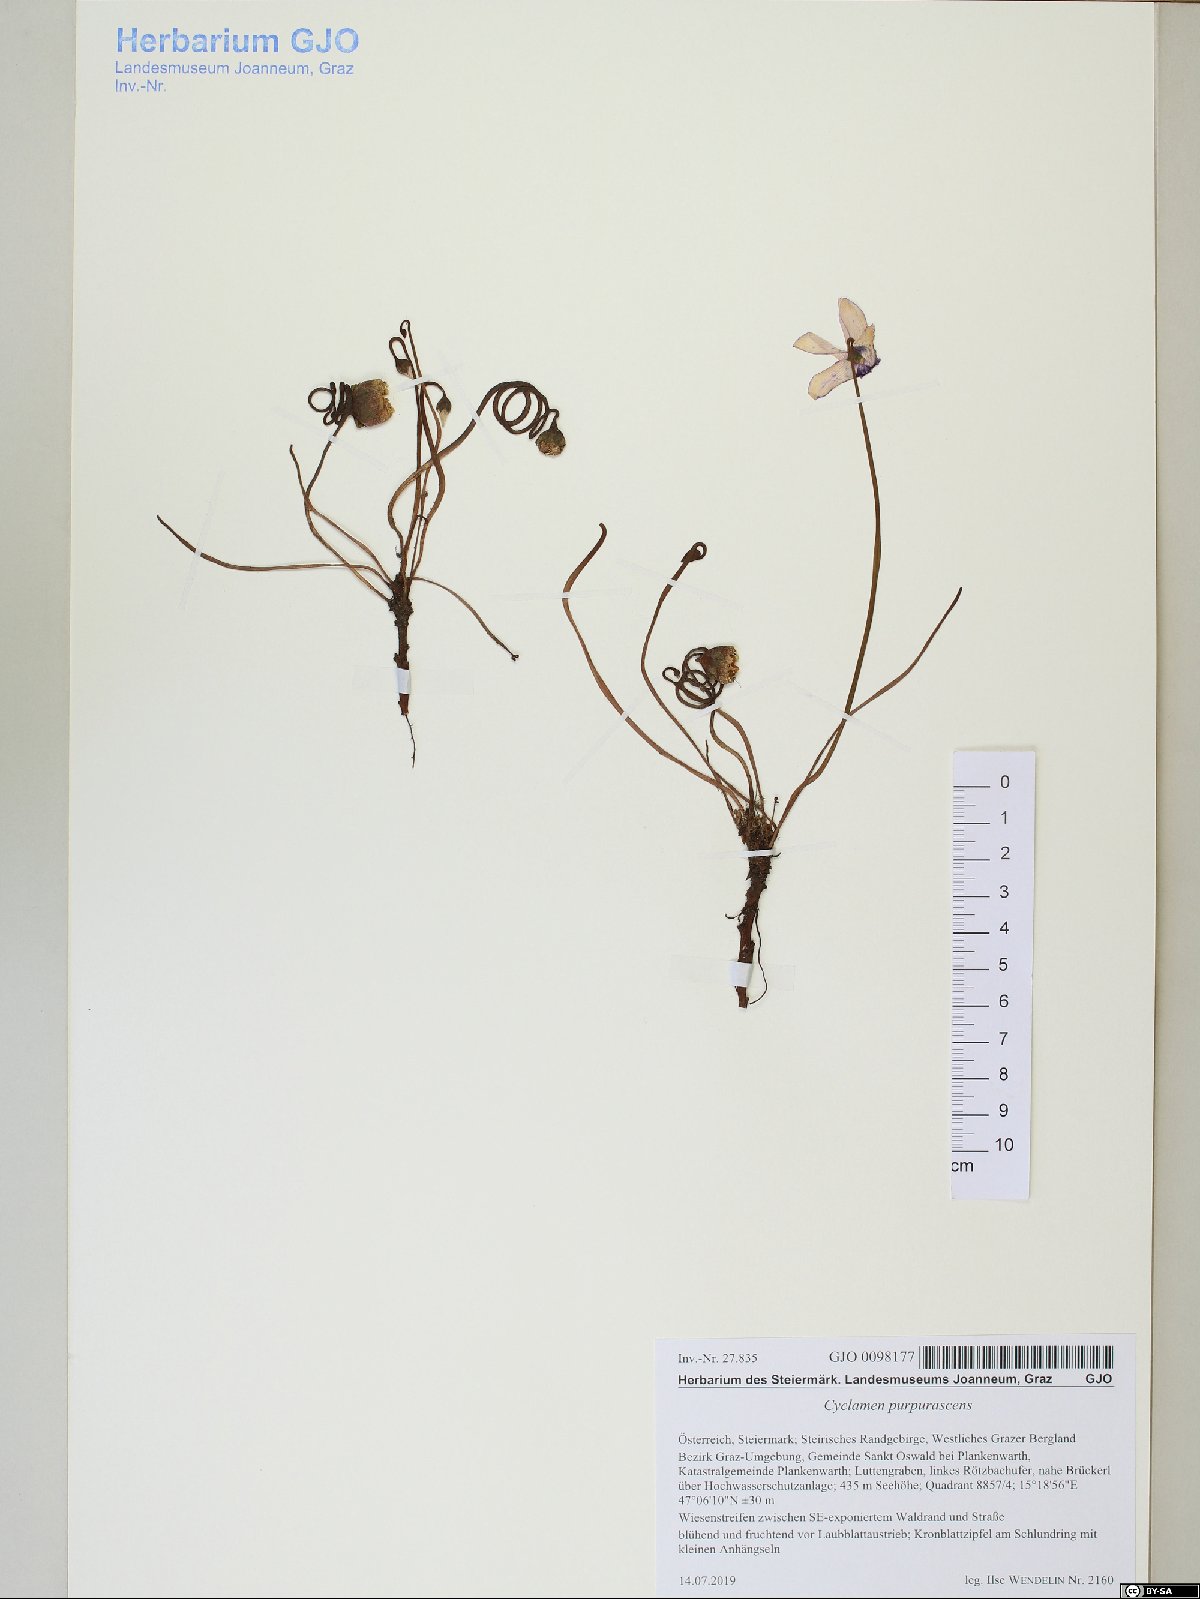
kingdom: Plantae
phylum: Tracheophyta
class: Magnoliopsida
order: Ericales
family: Primulaceae
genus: Cyclamen
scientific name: Cyclamen purpurascens
